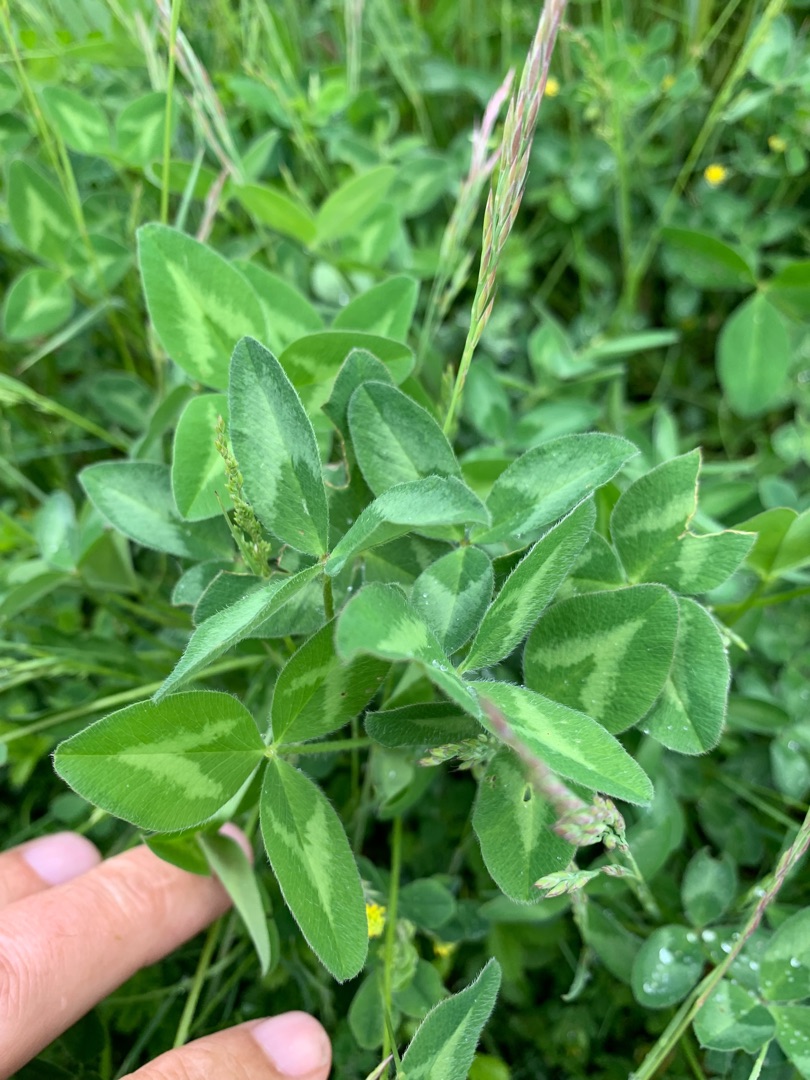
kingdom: Plantae
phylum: Tracheophyta
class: Magnoliopsida
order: Fabales
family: Fabaceae
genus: Trifolium
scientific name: Trifolium pratense
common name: Rød-kløver
